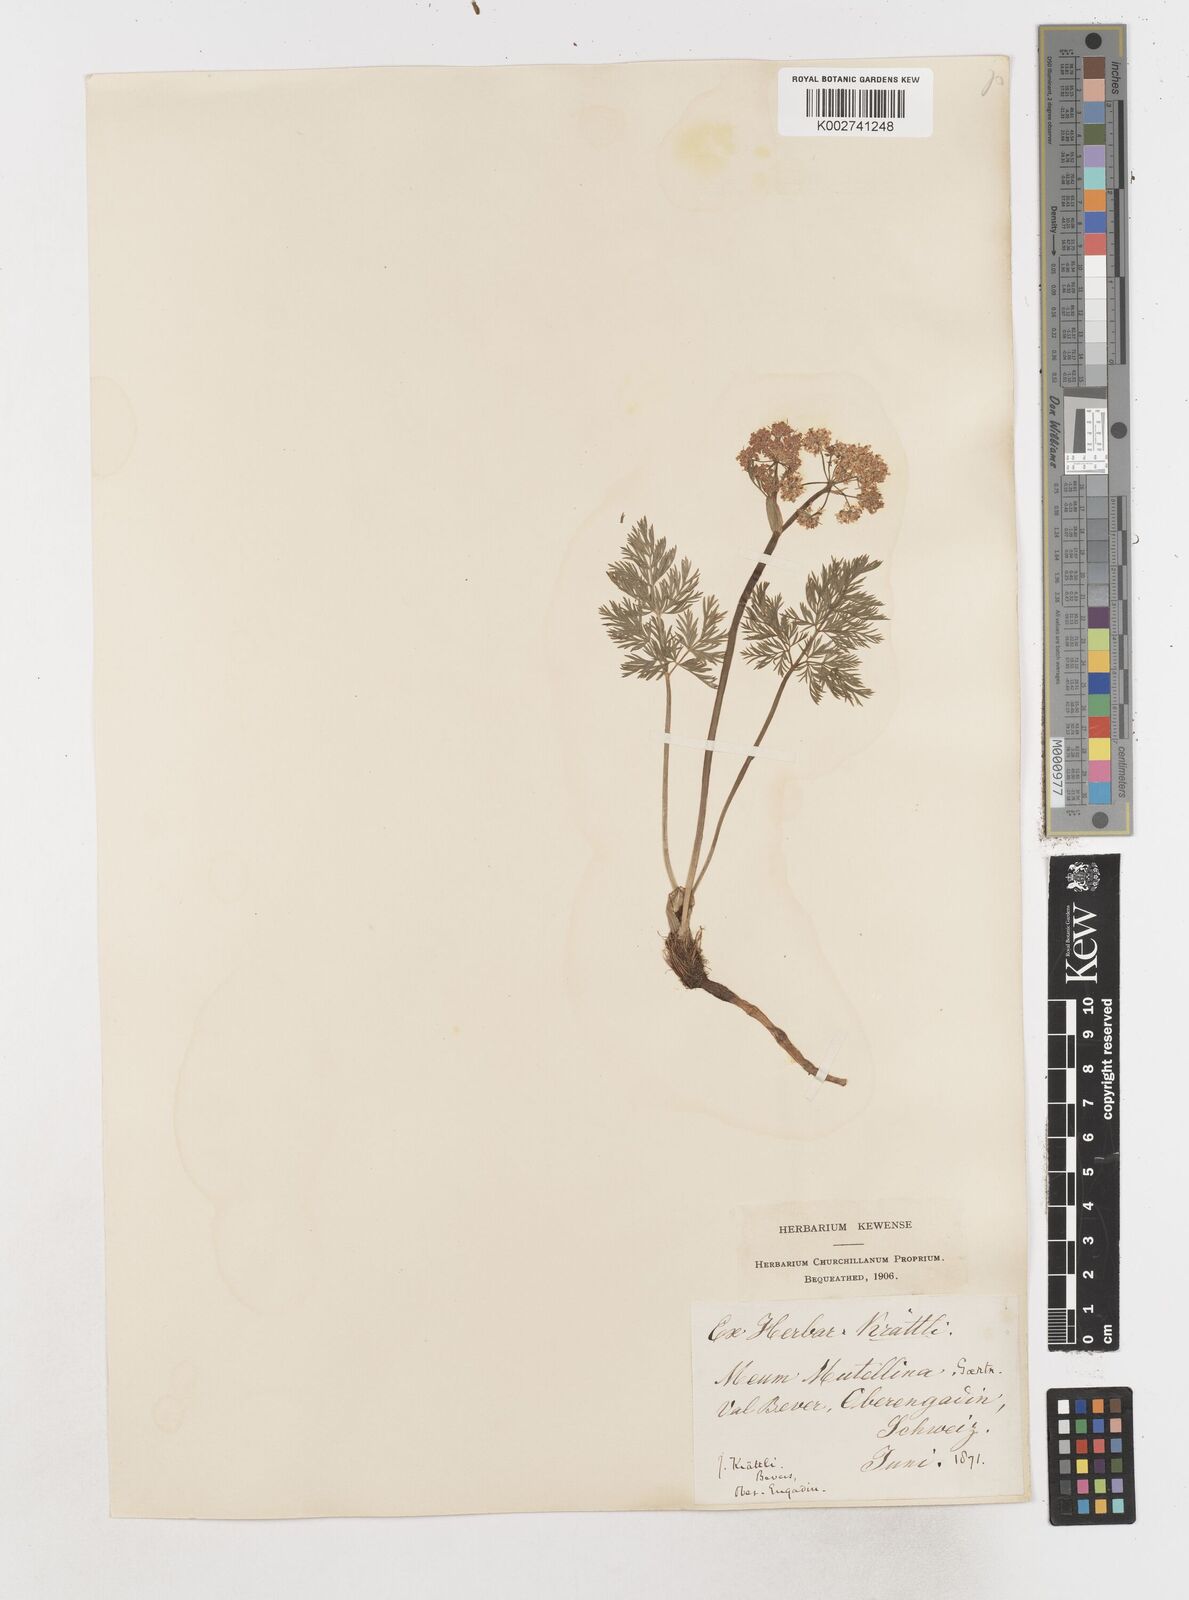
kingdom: Plantae
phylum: Tracheophyta
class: Magnoliopsida
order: Apiales
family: Apiaceae
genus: Mutellina
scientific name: Mutellina adonidifolia
